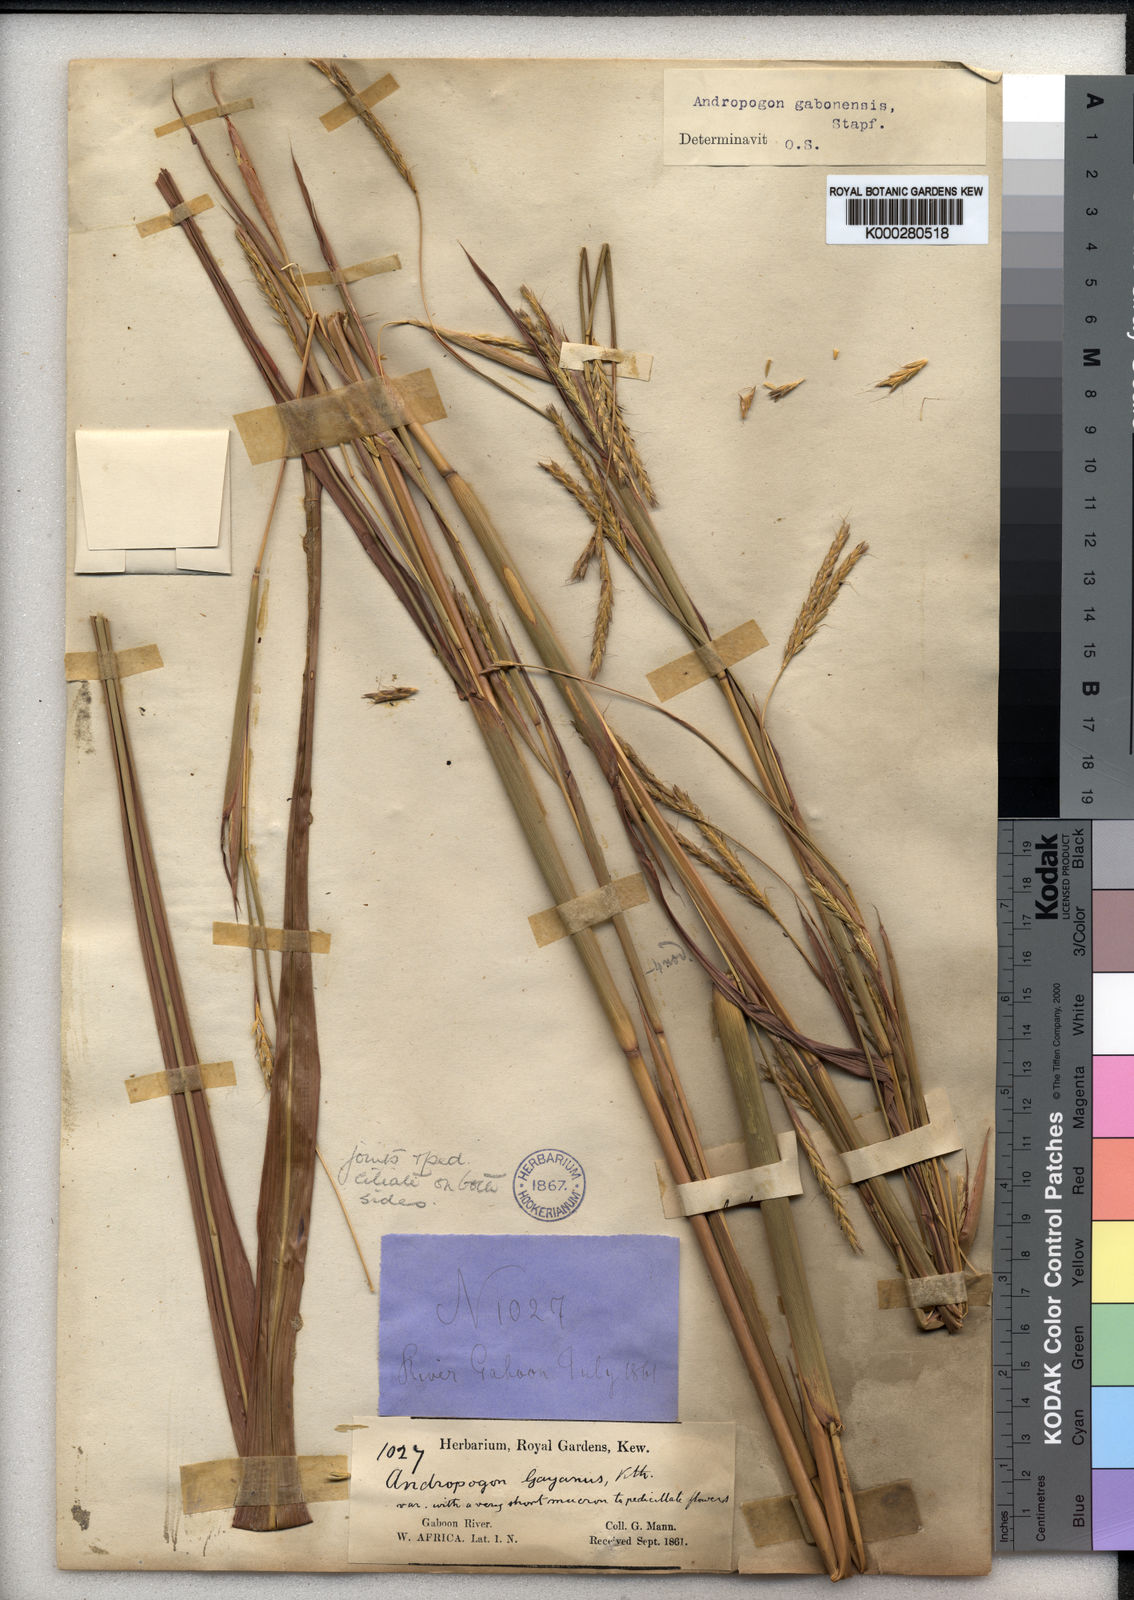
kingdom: Plantae
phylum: Tracheophyta
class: Liliopsida
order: Poales
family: Poaceae
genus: Andropogon
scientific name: Andropogon gabonensis
